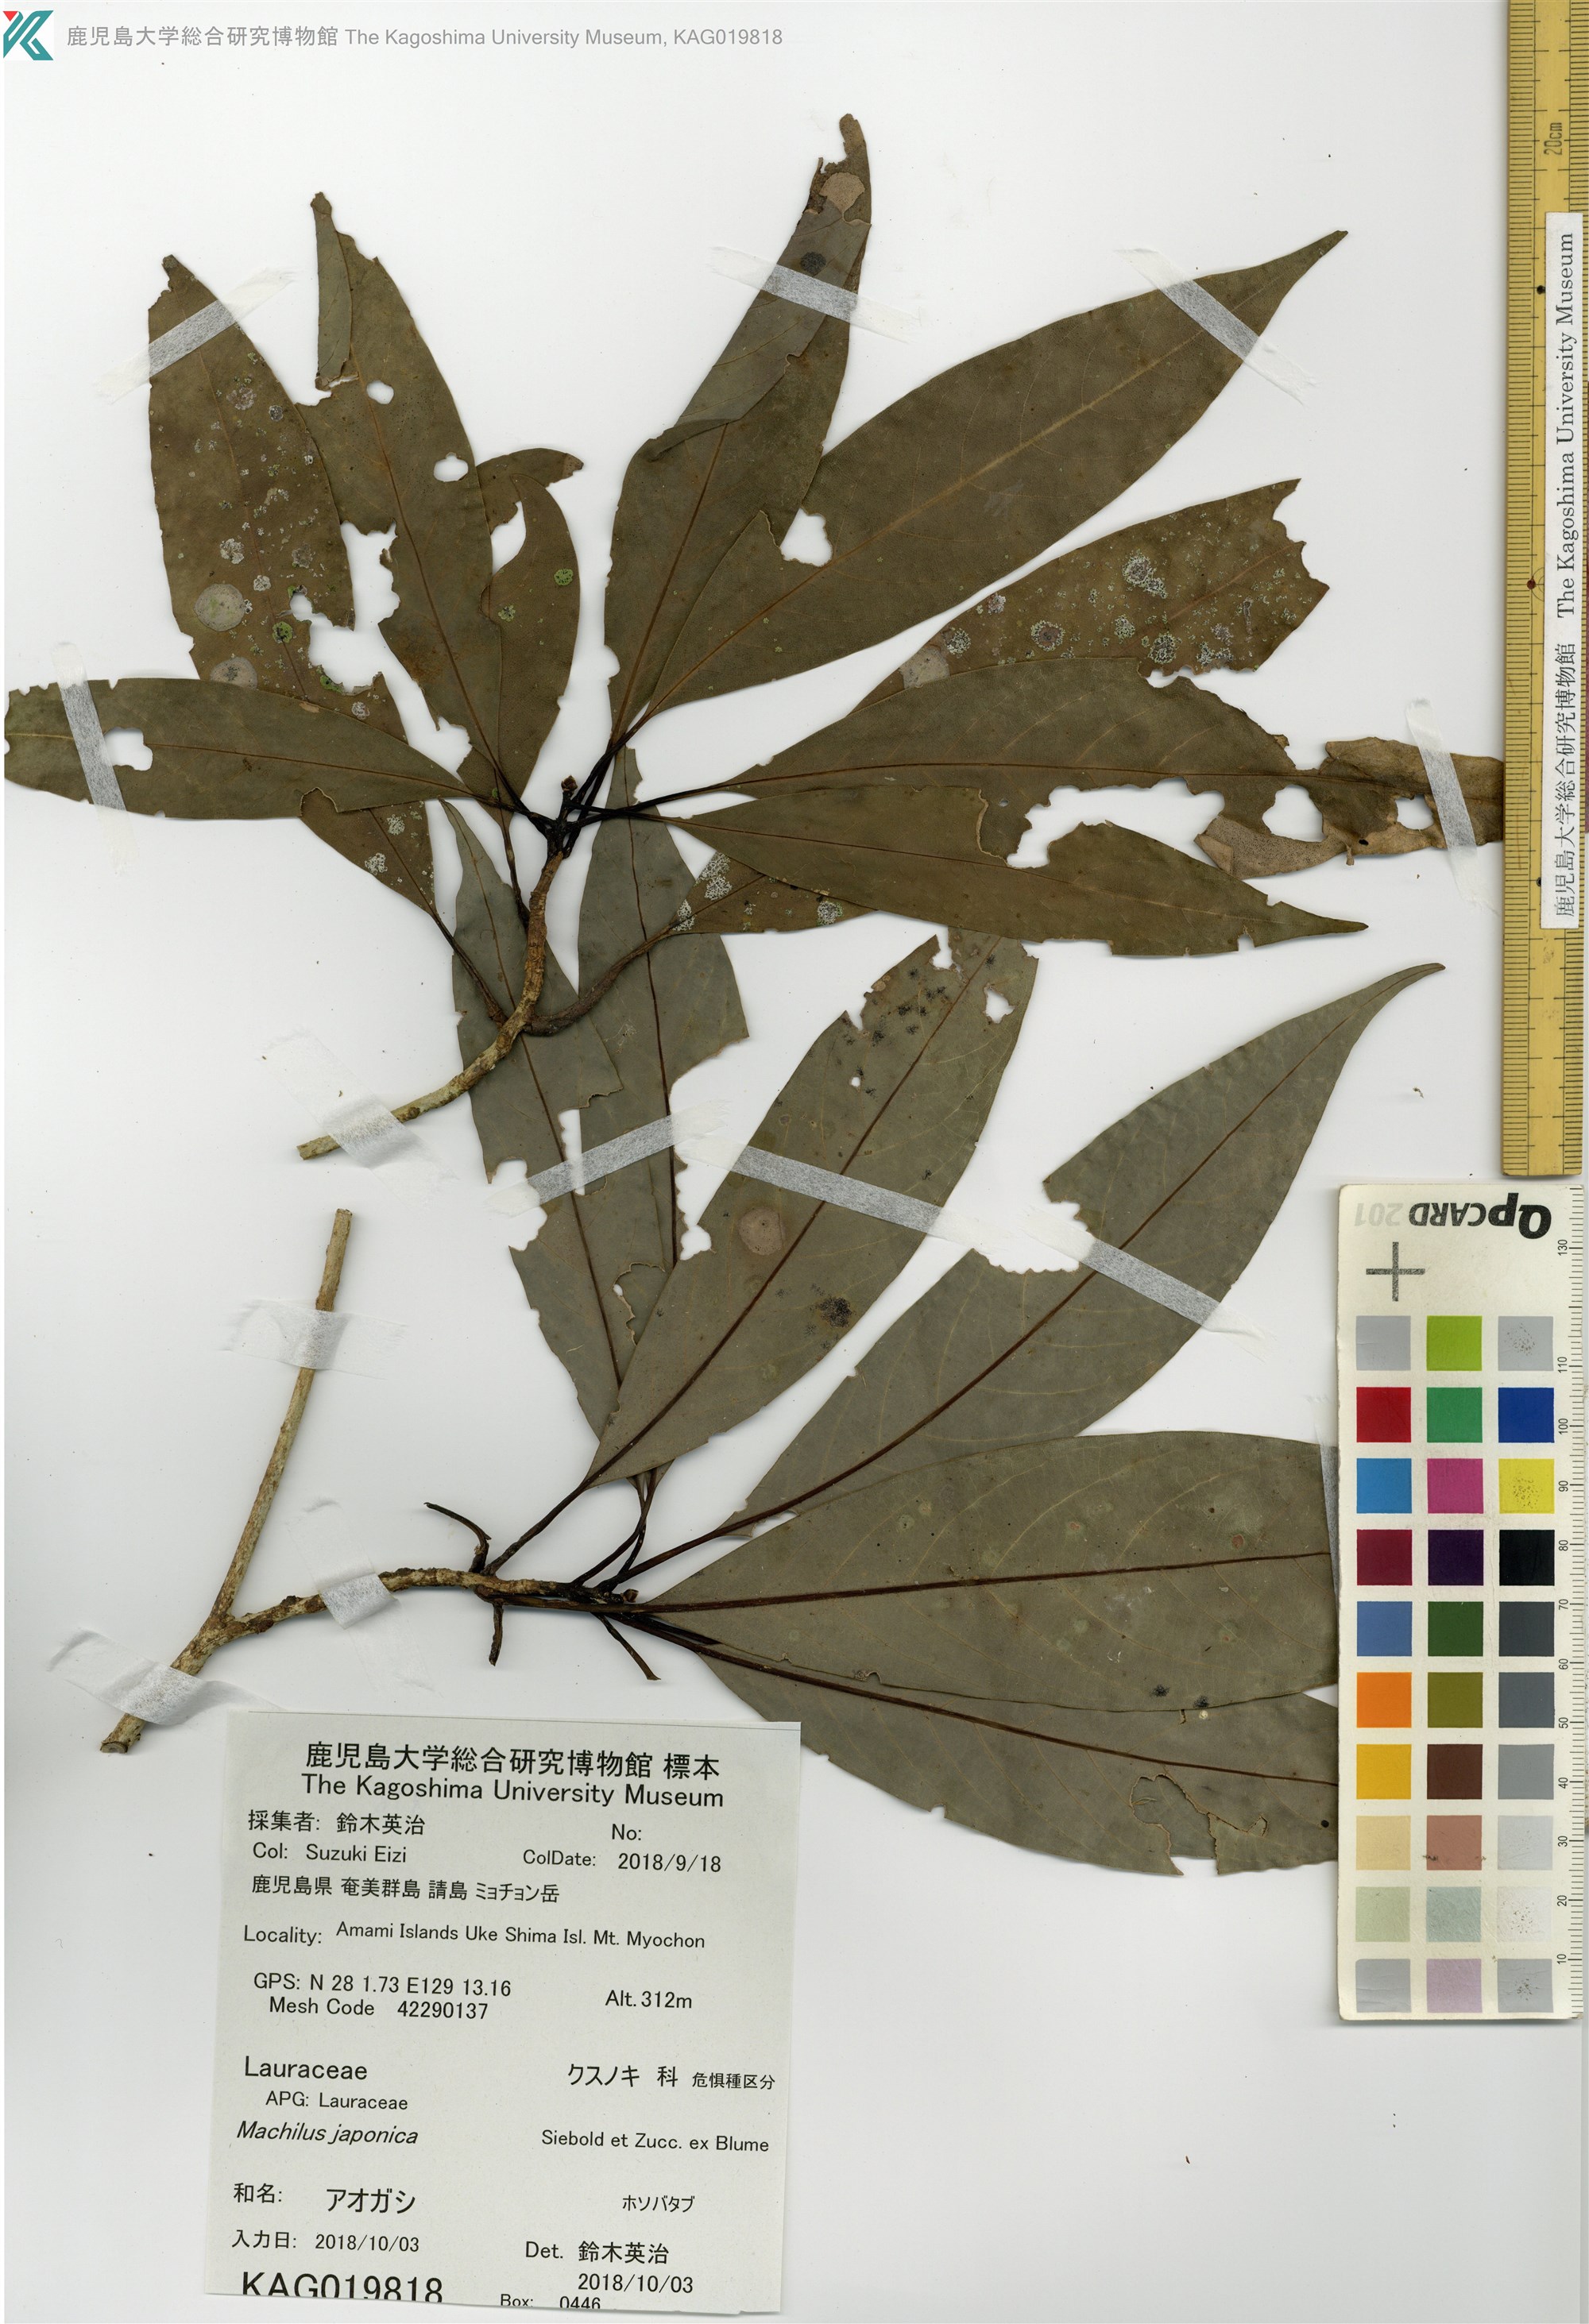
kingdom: Plantae
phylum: Tracheophyta
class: Magnoliopsida
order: Laurales
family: Lauraceae
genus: Machilus
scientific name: Machilus japonica
